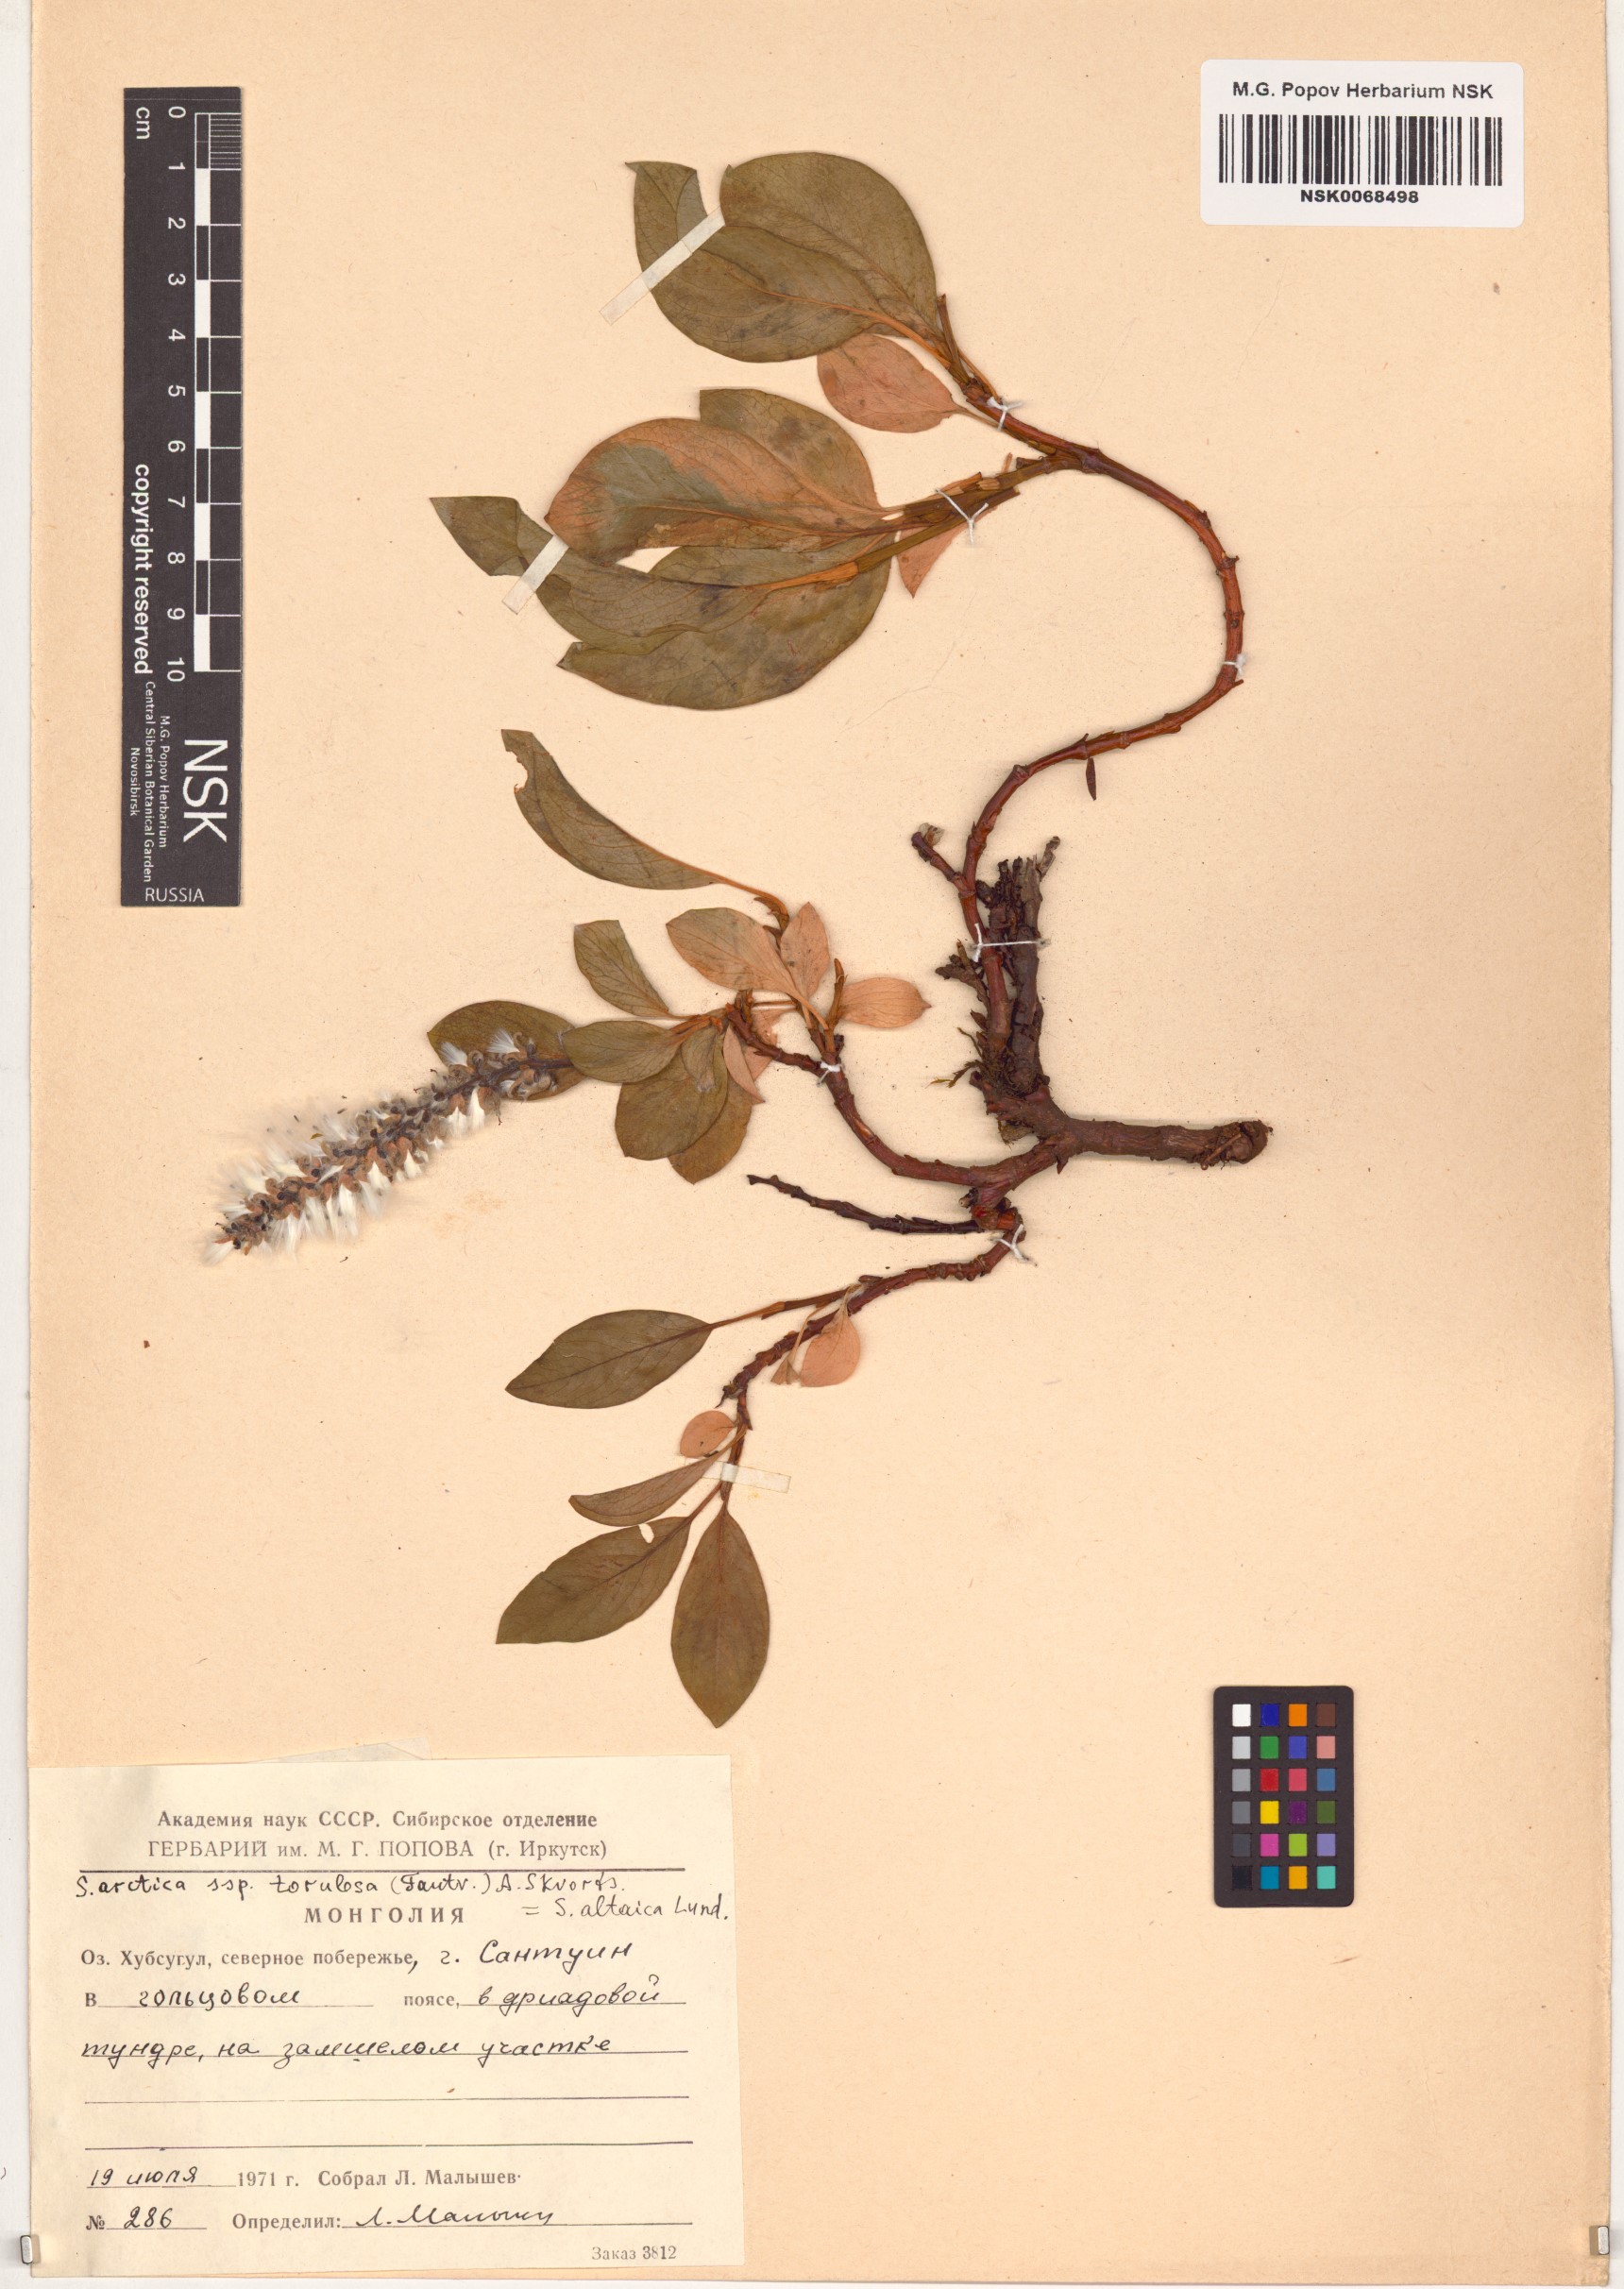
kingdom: Plantae
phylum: Tracheophyta
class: Magnoliopsida
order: Malpighiales
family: Salicaceae
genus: Salix
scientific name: Salix arctica
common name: Arctic willow
